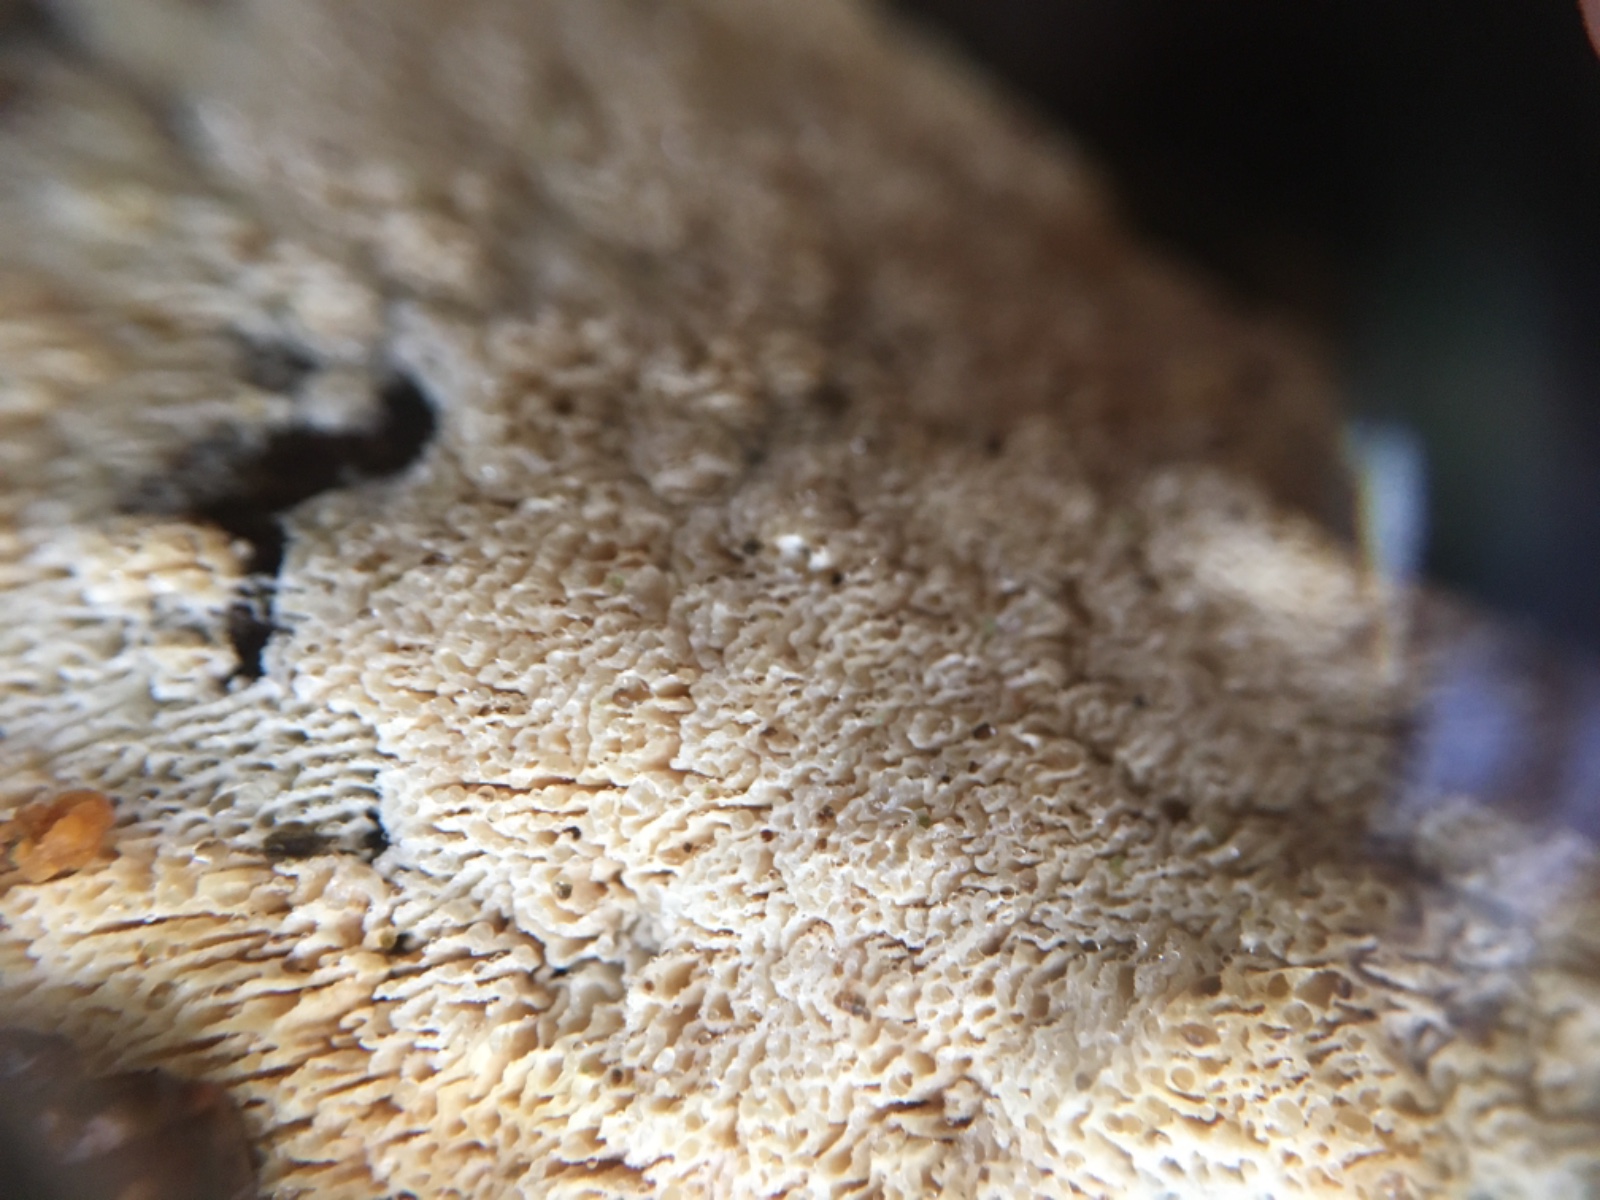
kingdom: Fungi
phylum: Basidiomycota
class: Agaricomycetes
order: Hymenochaetales
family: Schizoporaceae
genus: Xylodon
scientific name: Xylodon
